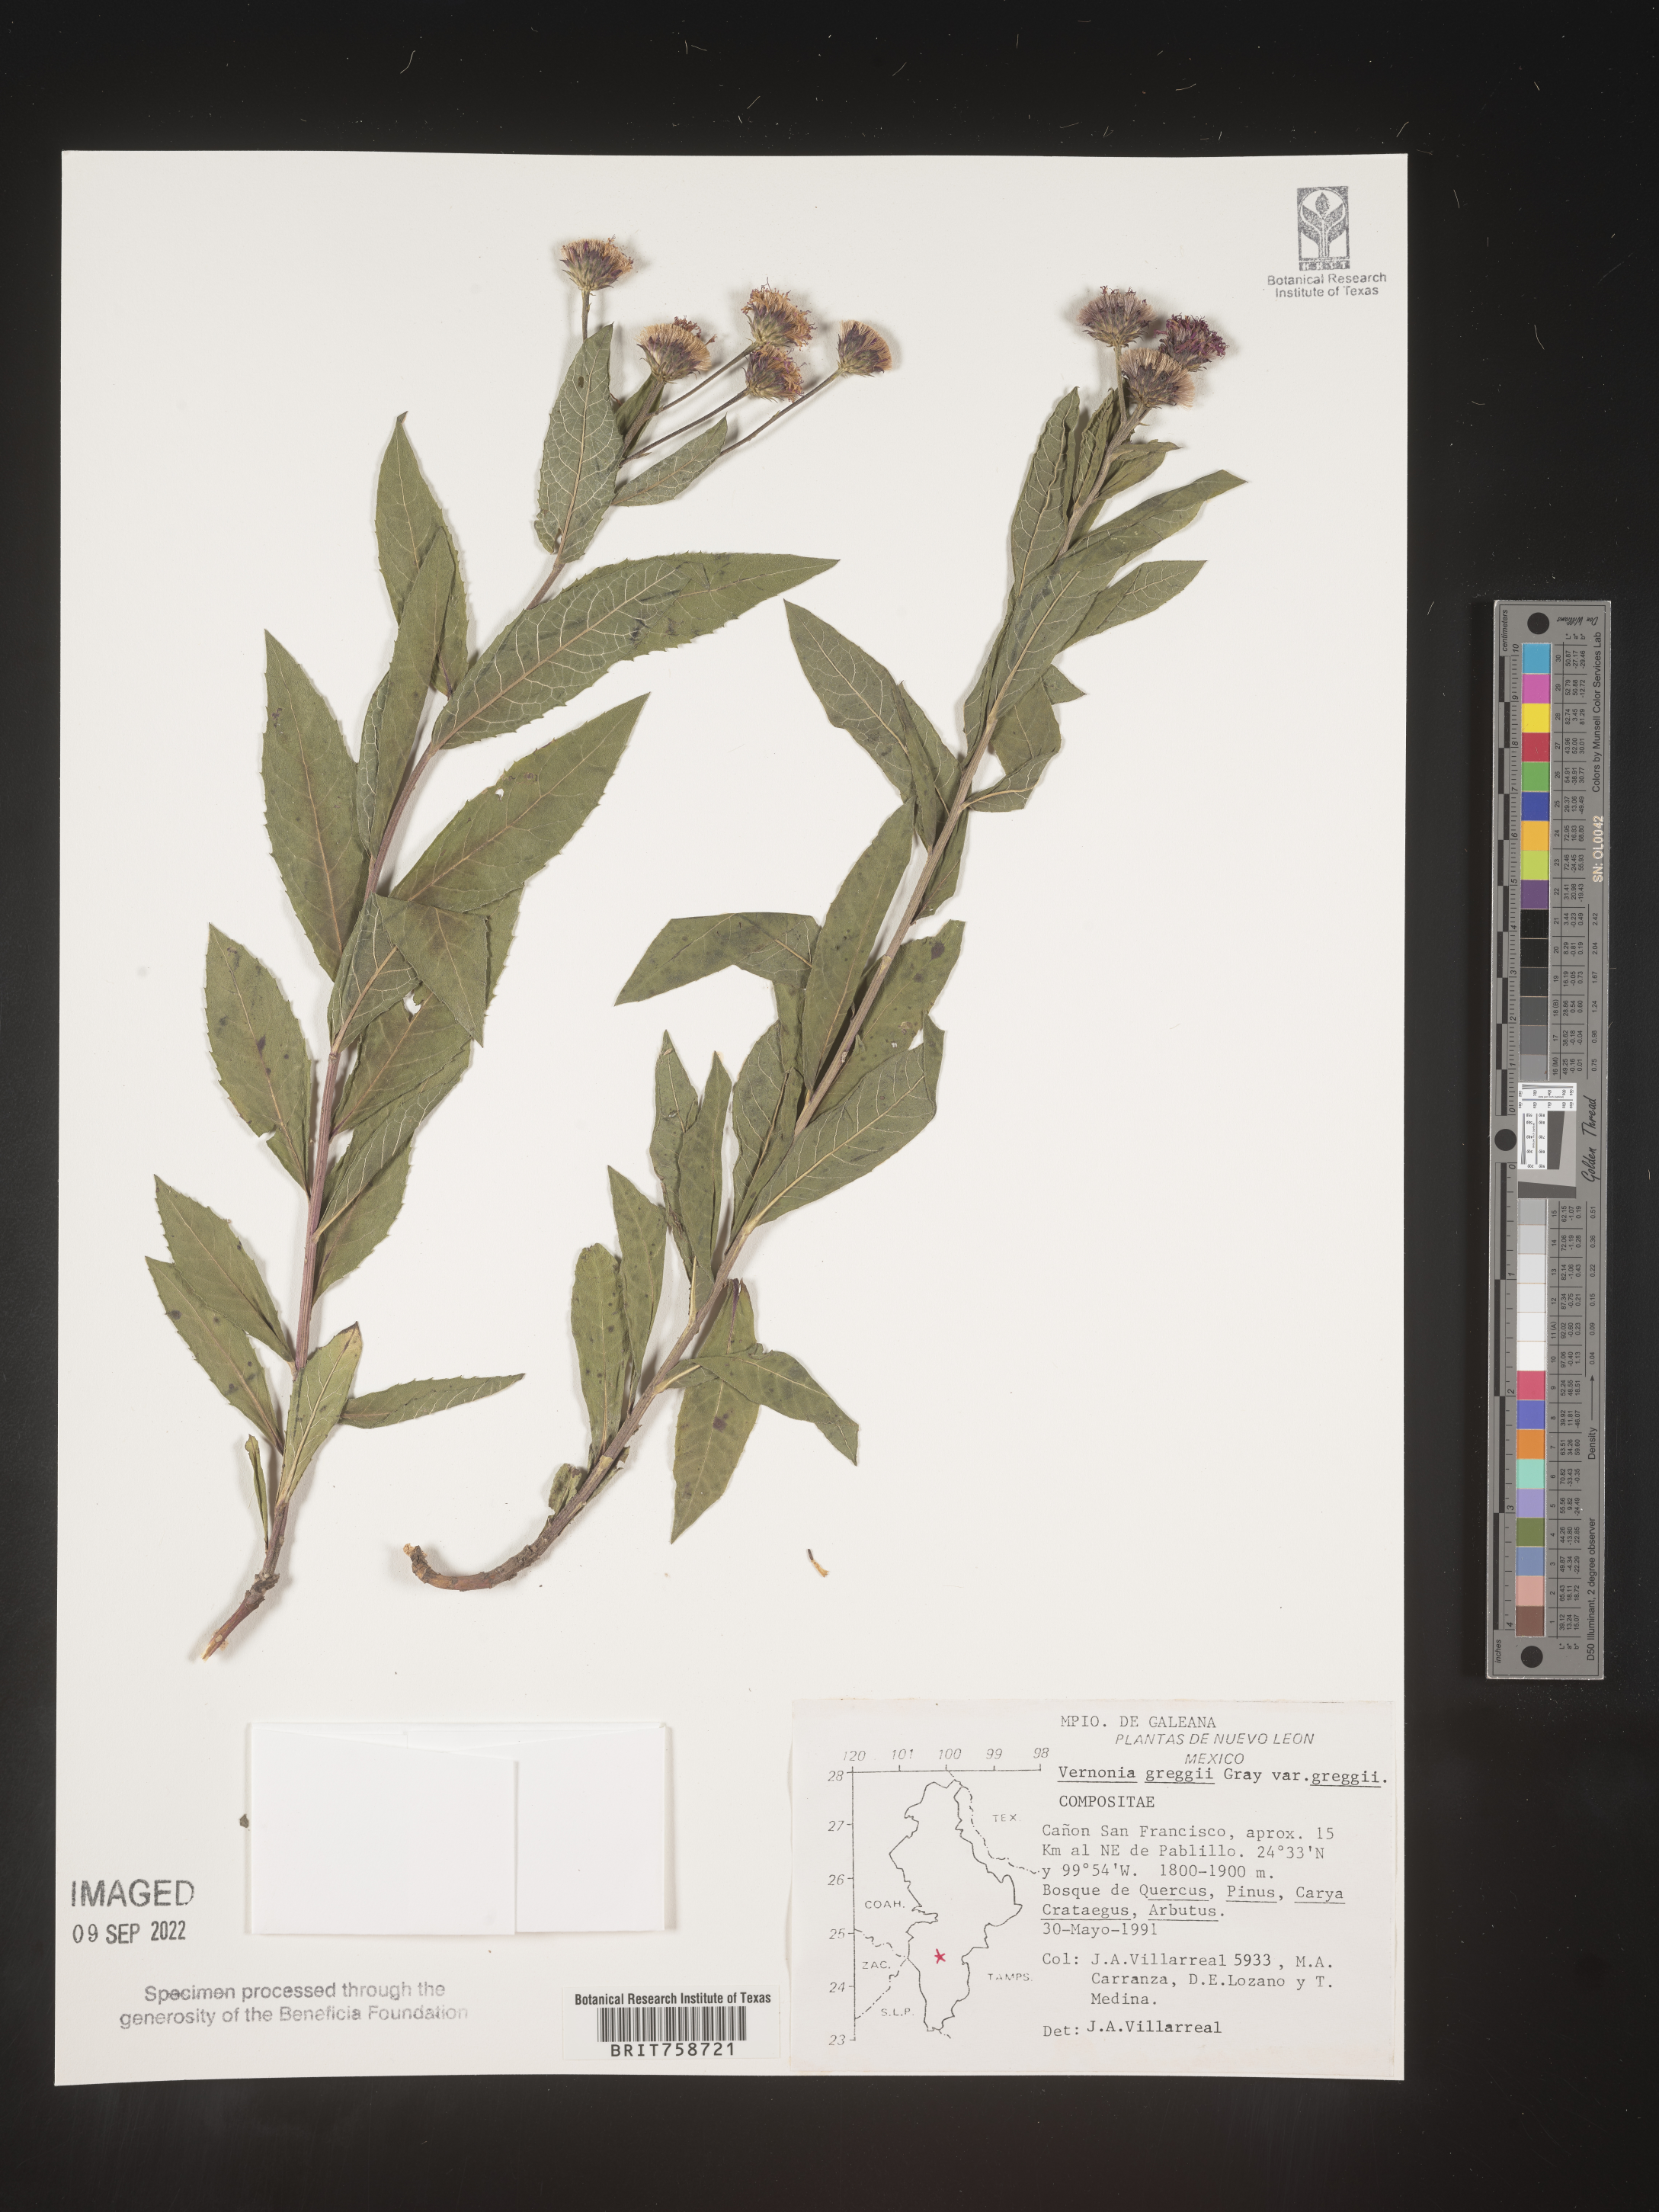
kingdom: Plantae
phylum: Tracheophyta
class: Magnoliopsida
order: Asterales
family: Asteraceae
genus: Vernonia
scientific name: Vernonia
